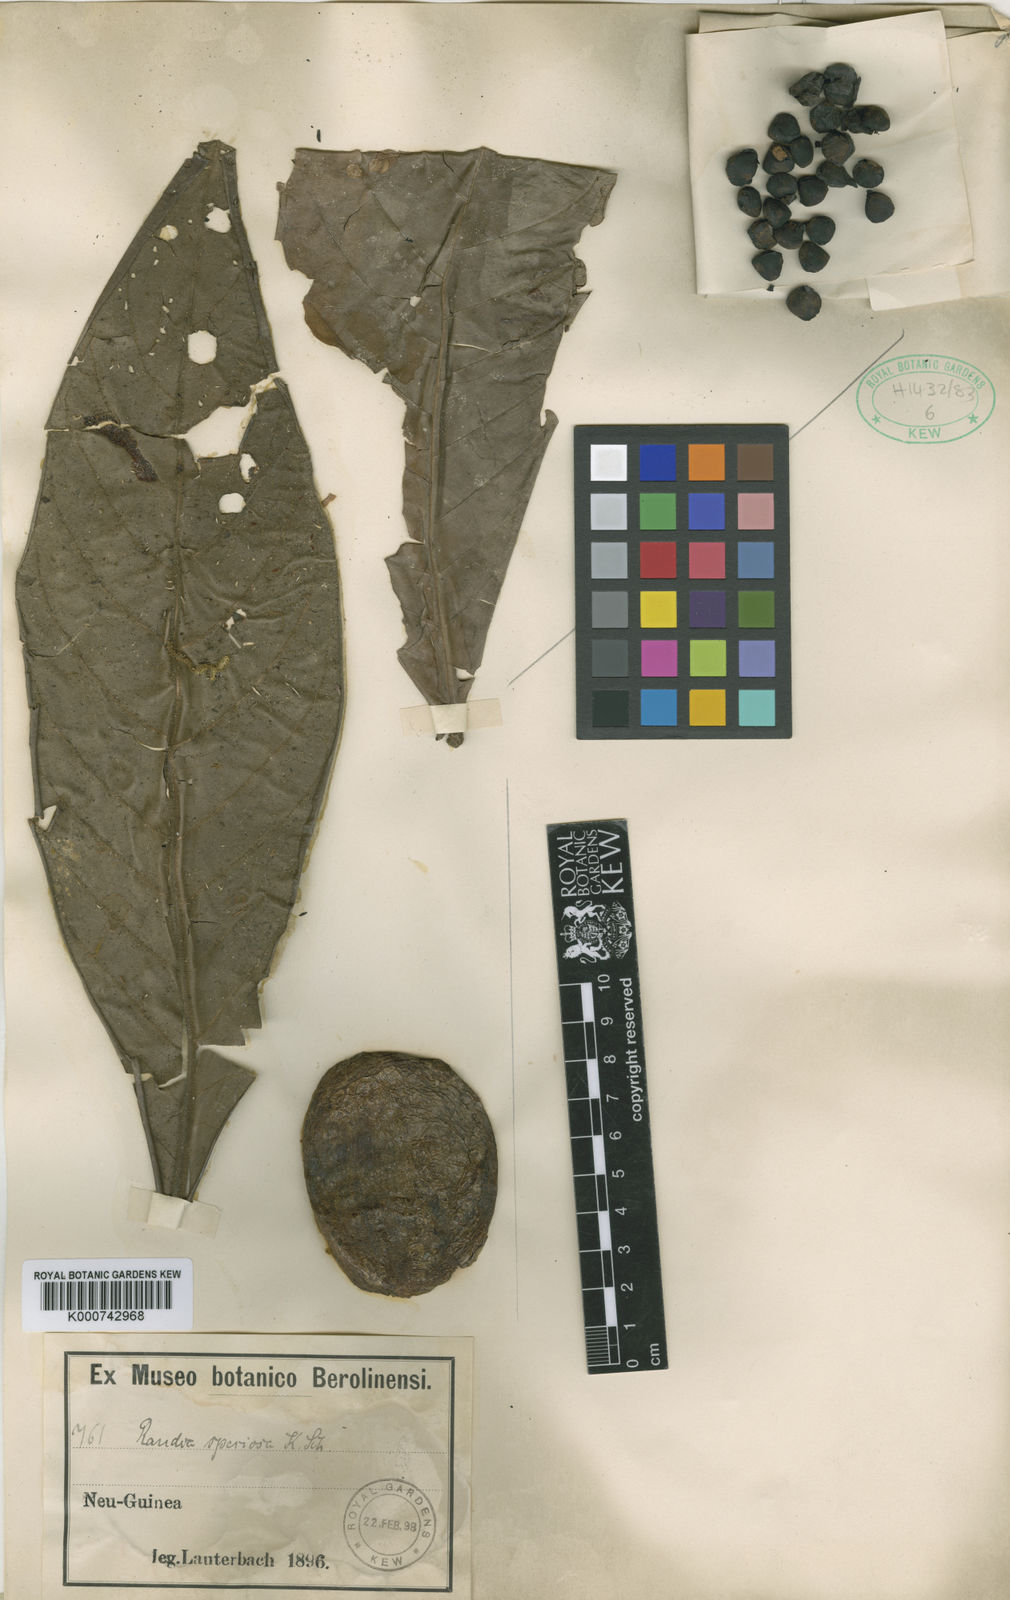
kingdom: Plantae
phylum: Tracheophyta
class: Magnoliopsida
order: Gentianales
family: Rubiaceae
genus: Randia
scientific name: Randia schumanniana
